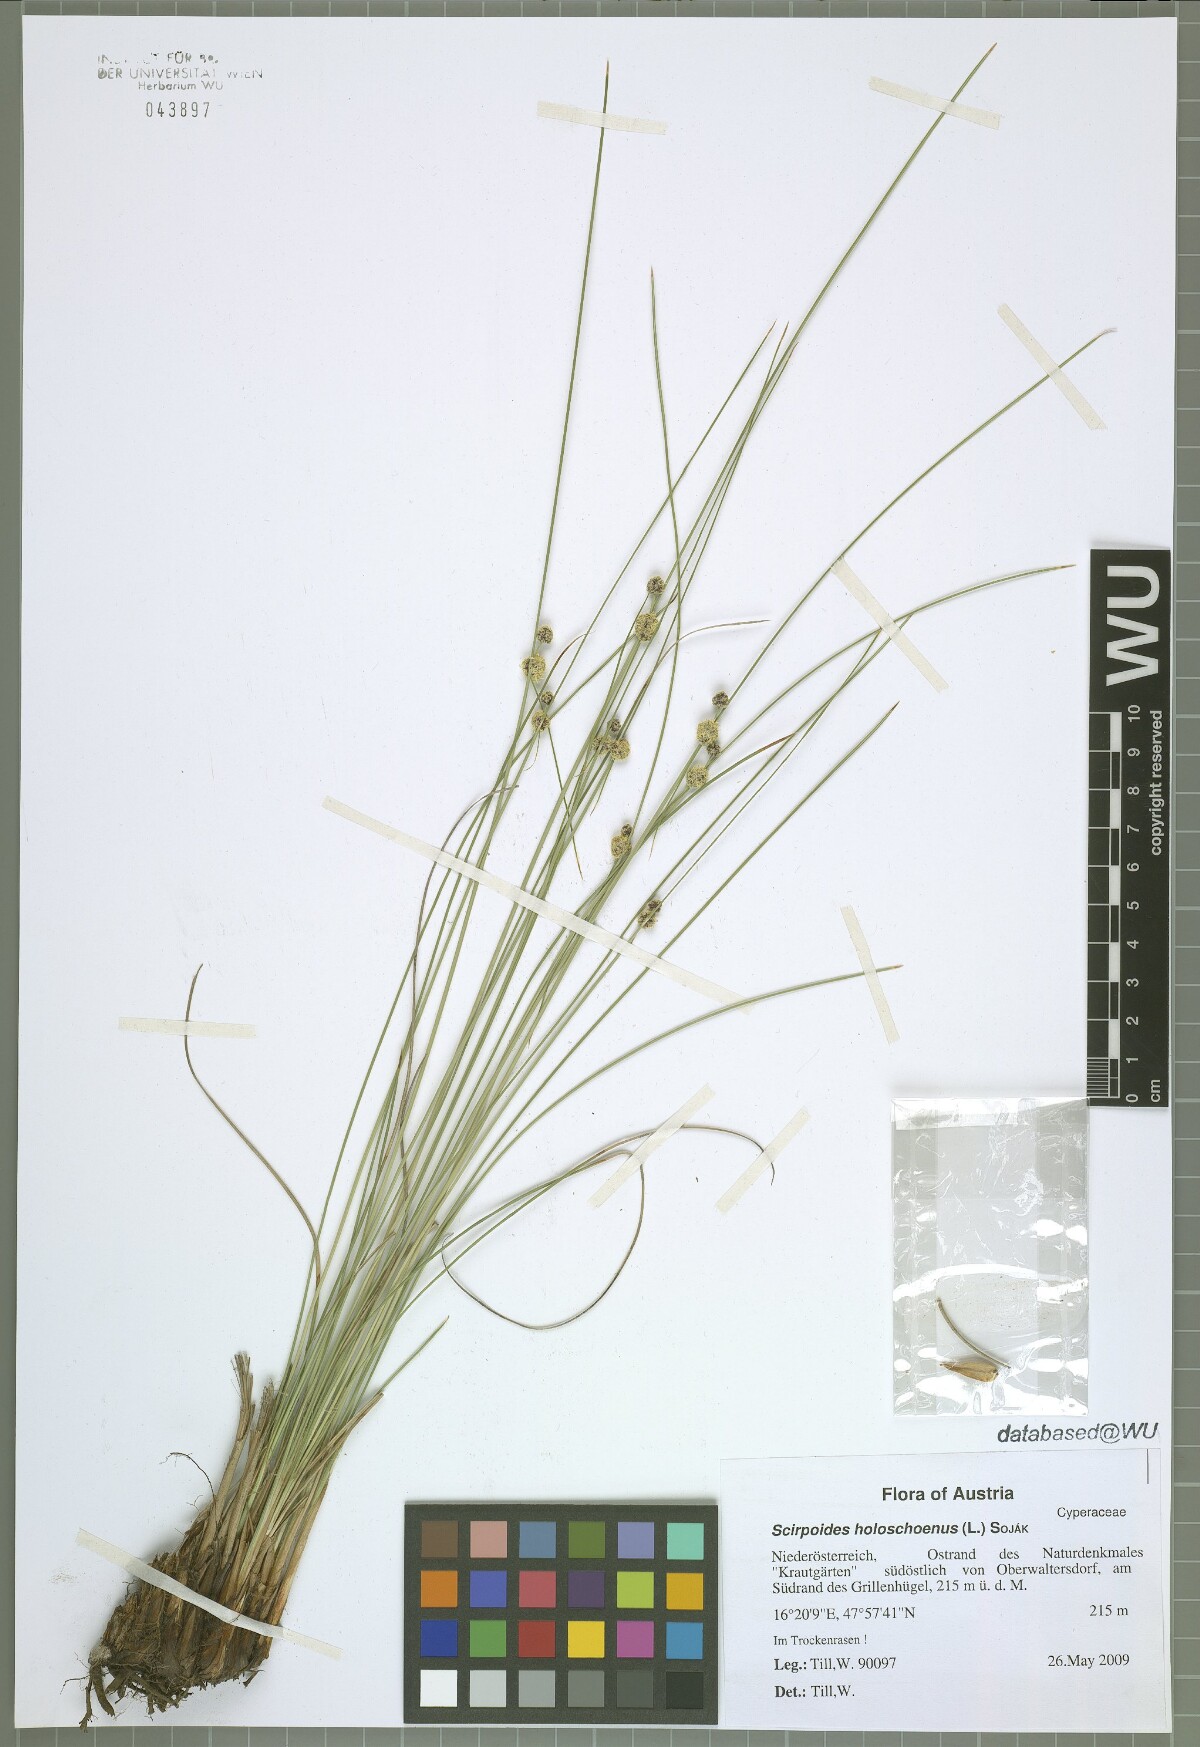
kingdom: Plantae
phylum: Tracheophyta
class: Liliopsida
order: Poales
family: Cyperaceae
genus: Scirpoides
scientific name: Scirpoides holoschoenus
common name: Round-headed club-rush
